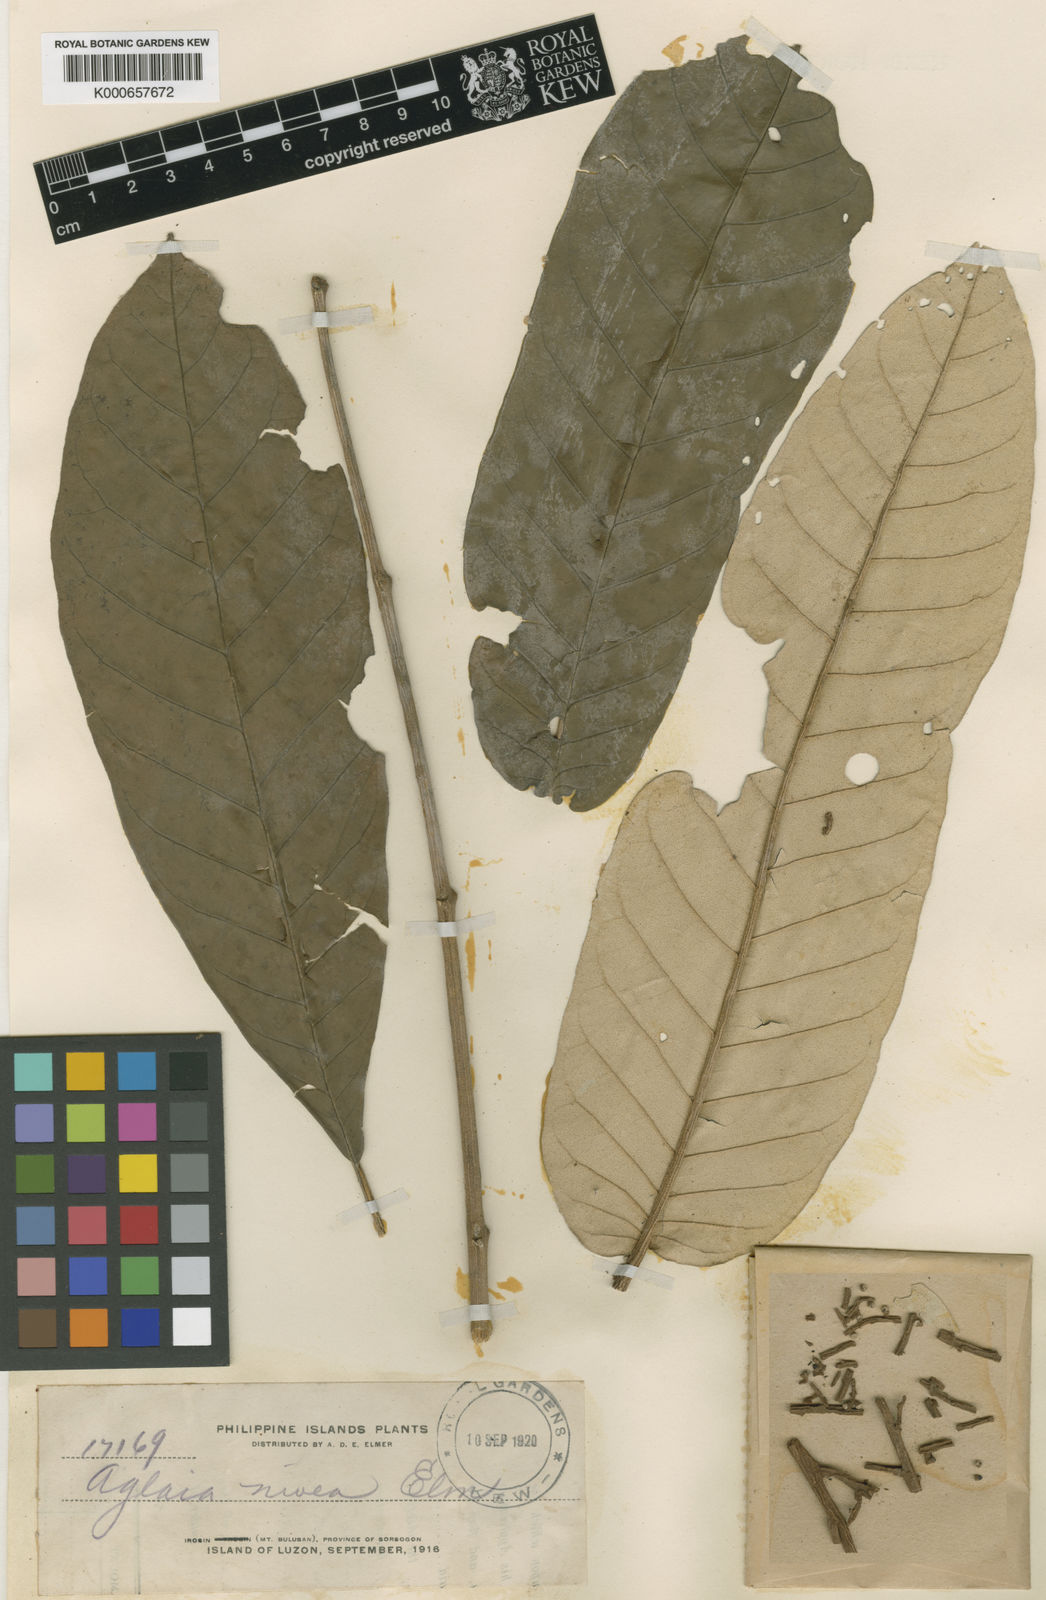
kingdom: Plantae
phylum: Tracheophyta
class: Magnoliopsida
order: Sapindales
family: Meliaceae
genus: Aglaia
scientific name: Aglaia
